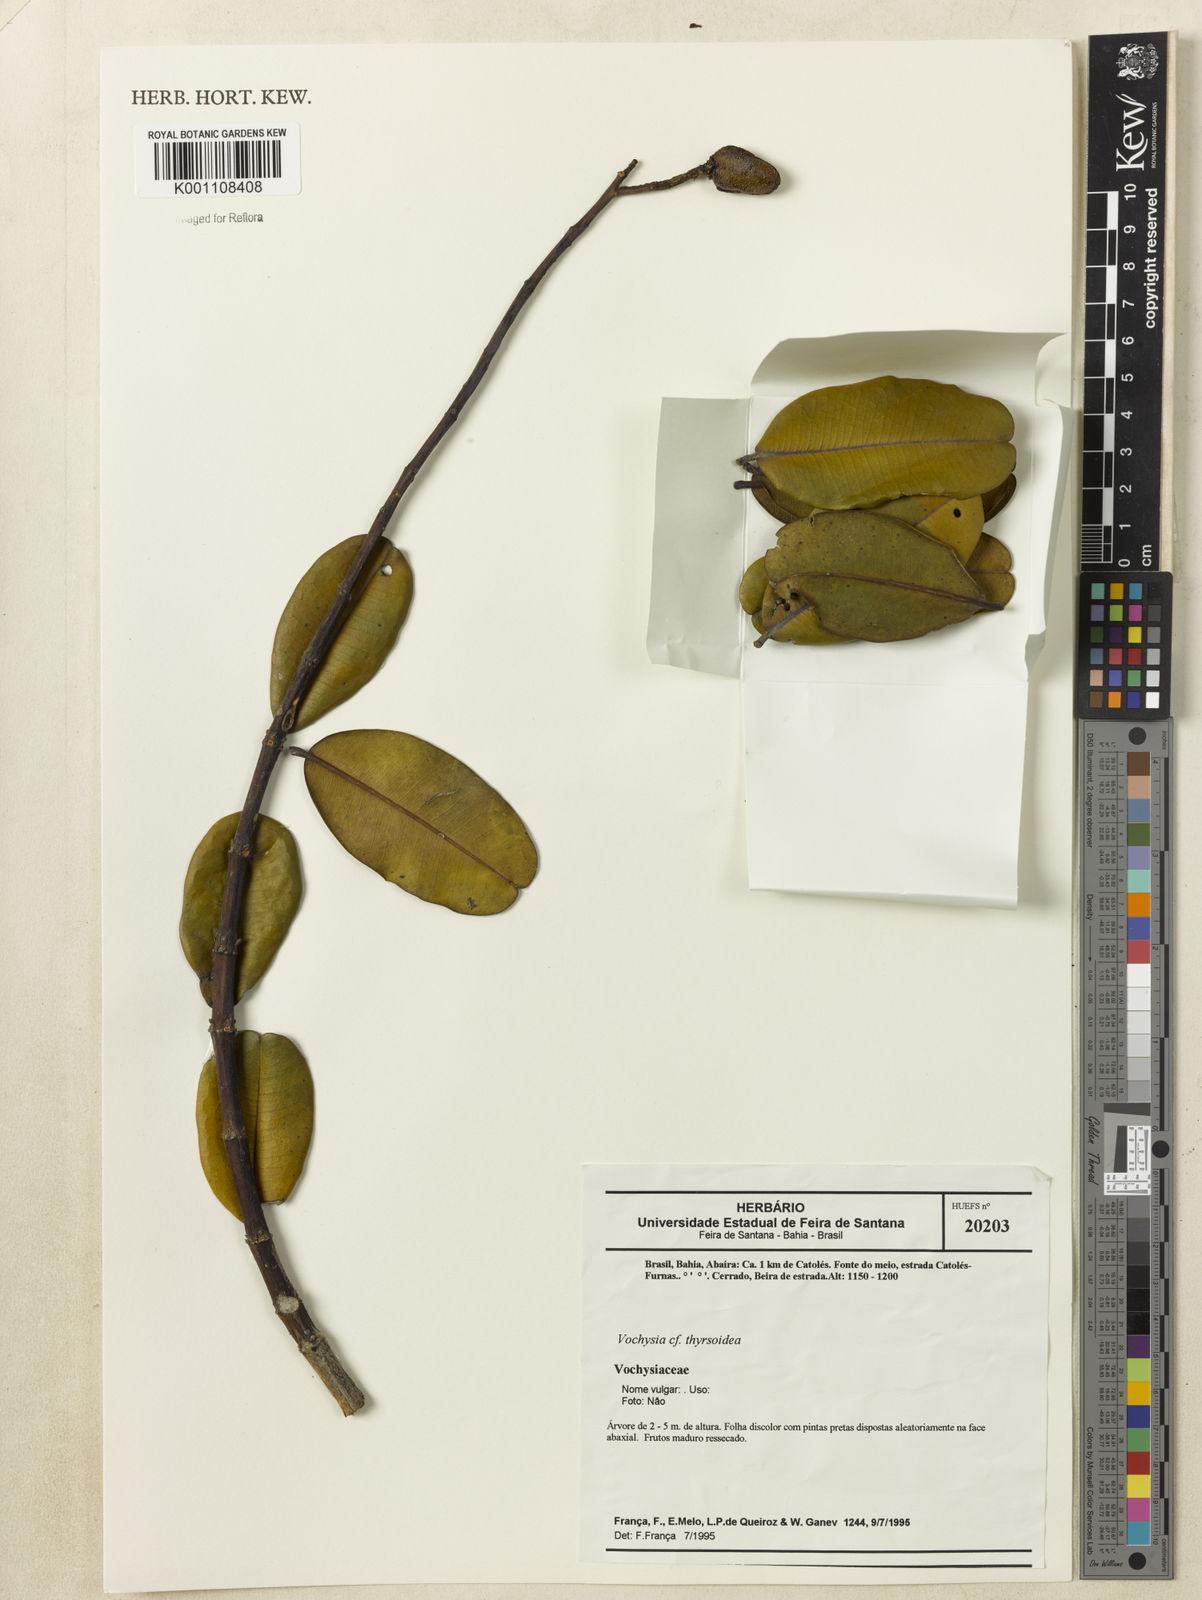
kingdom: Plantae
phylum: Tracheophyta
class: Magnoliopsida
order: Myrtales
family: Vochysiaceae
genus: Vochysia
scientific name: Vochysia thyrsoidea
